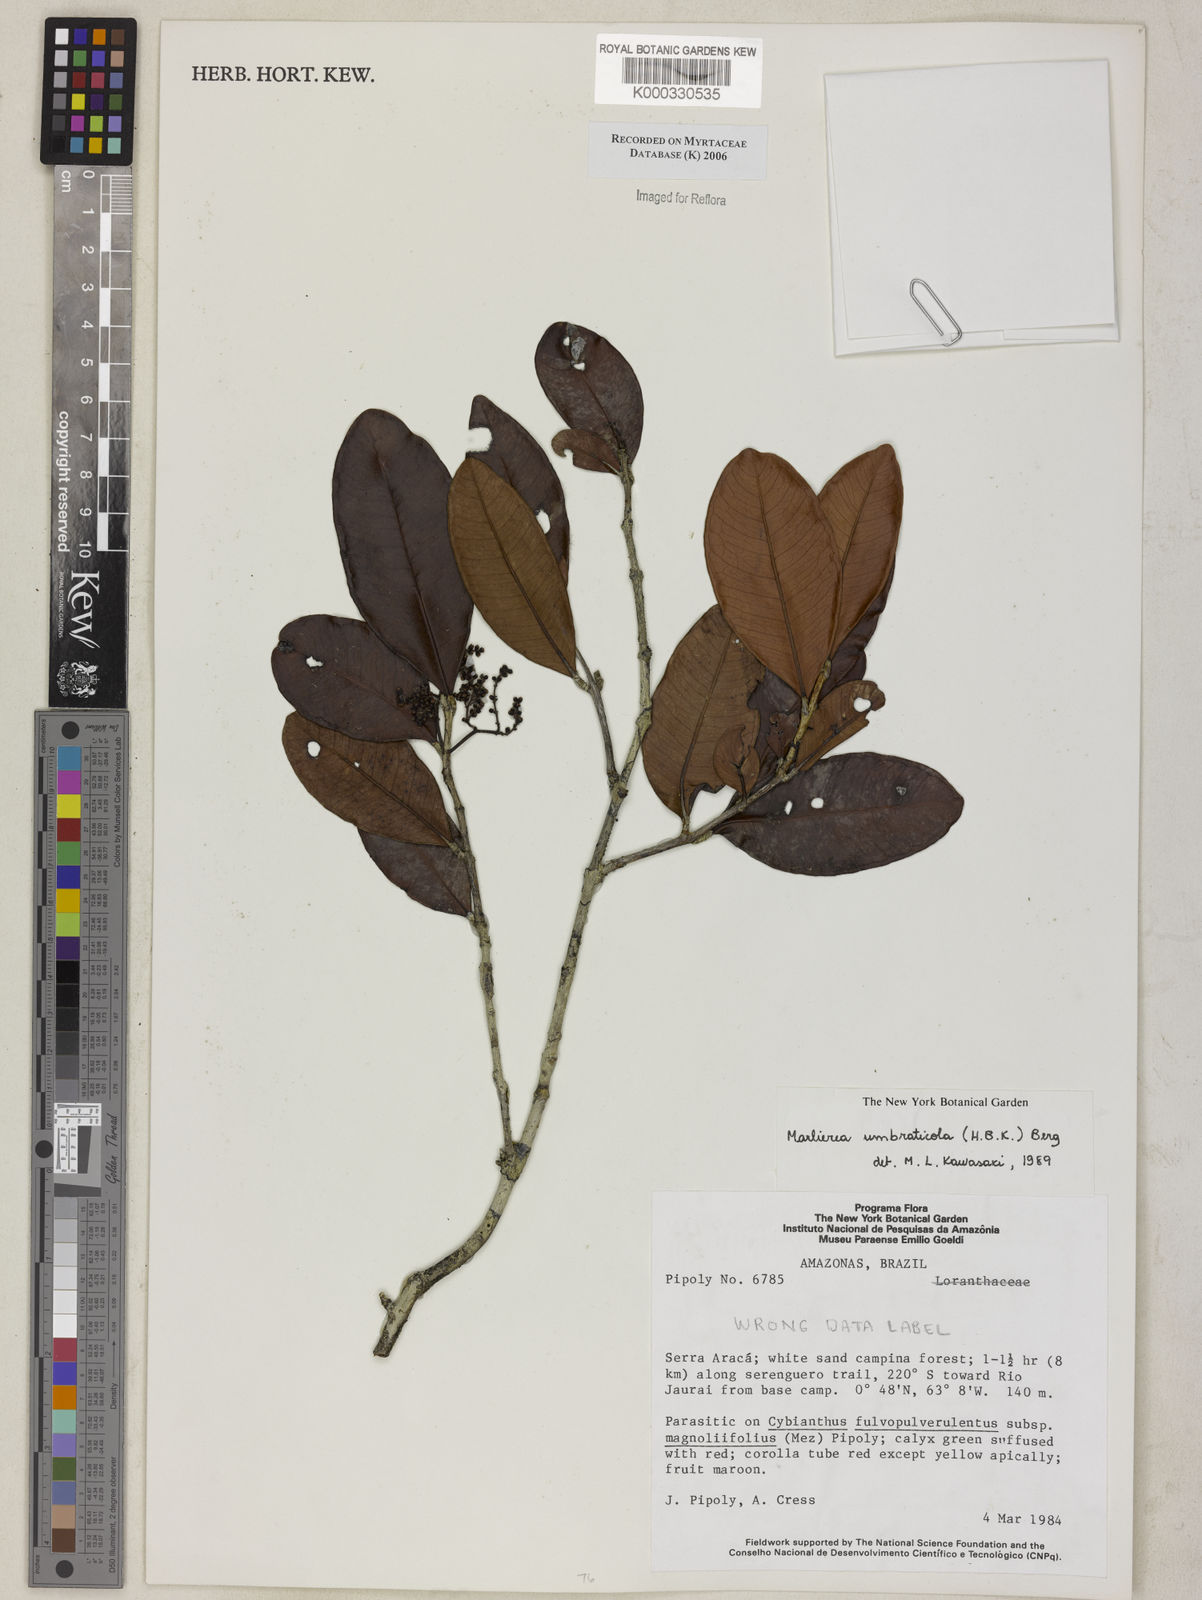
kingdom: Plantae
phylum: Tracheophyta
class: Magnoliopsida
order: Myrtales
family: Myrtaceae
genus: Myrcia
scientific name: Myrcia umbraticola
